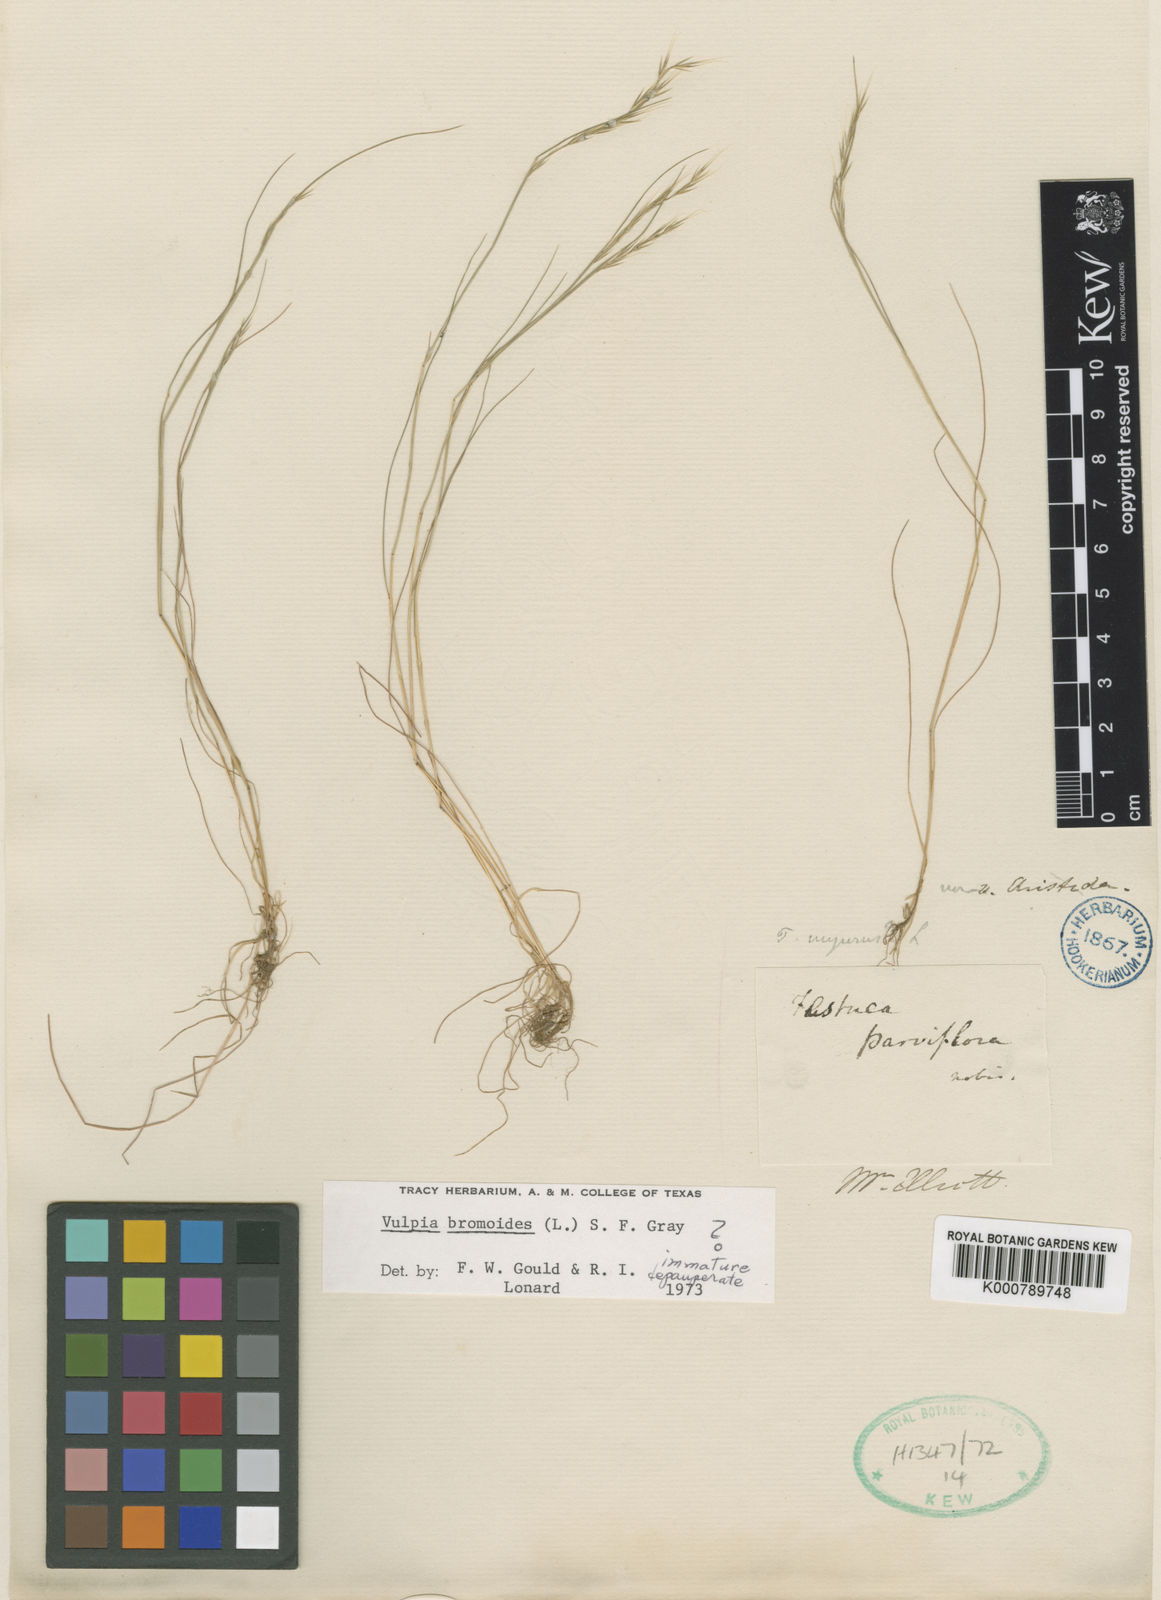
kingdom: Plantae
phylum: Tracheophyta
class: Liliopsida
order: Poales
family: Poaceae
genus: Festuca
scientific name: Festuca bromoides
